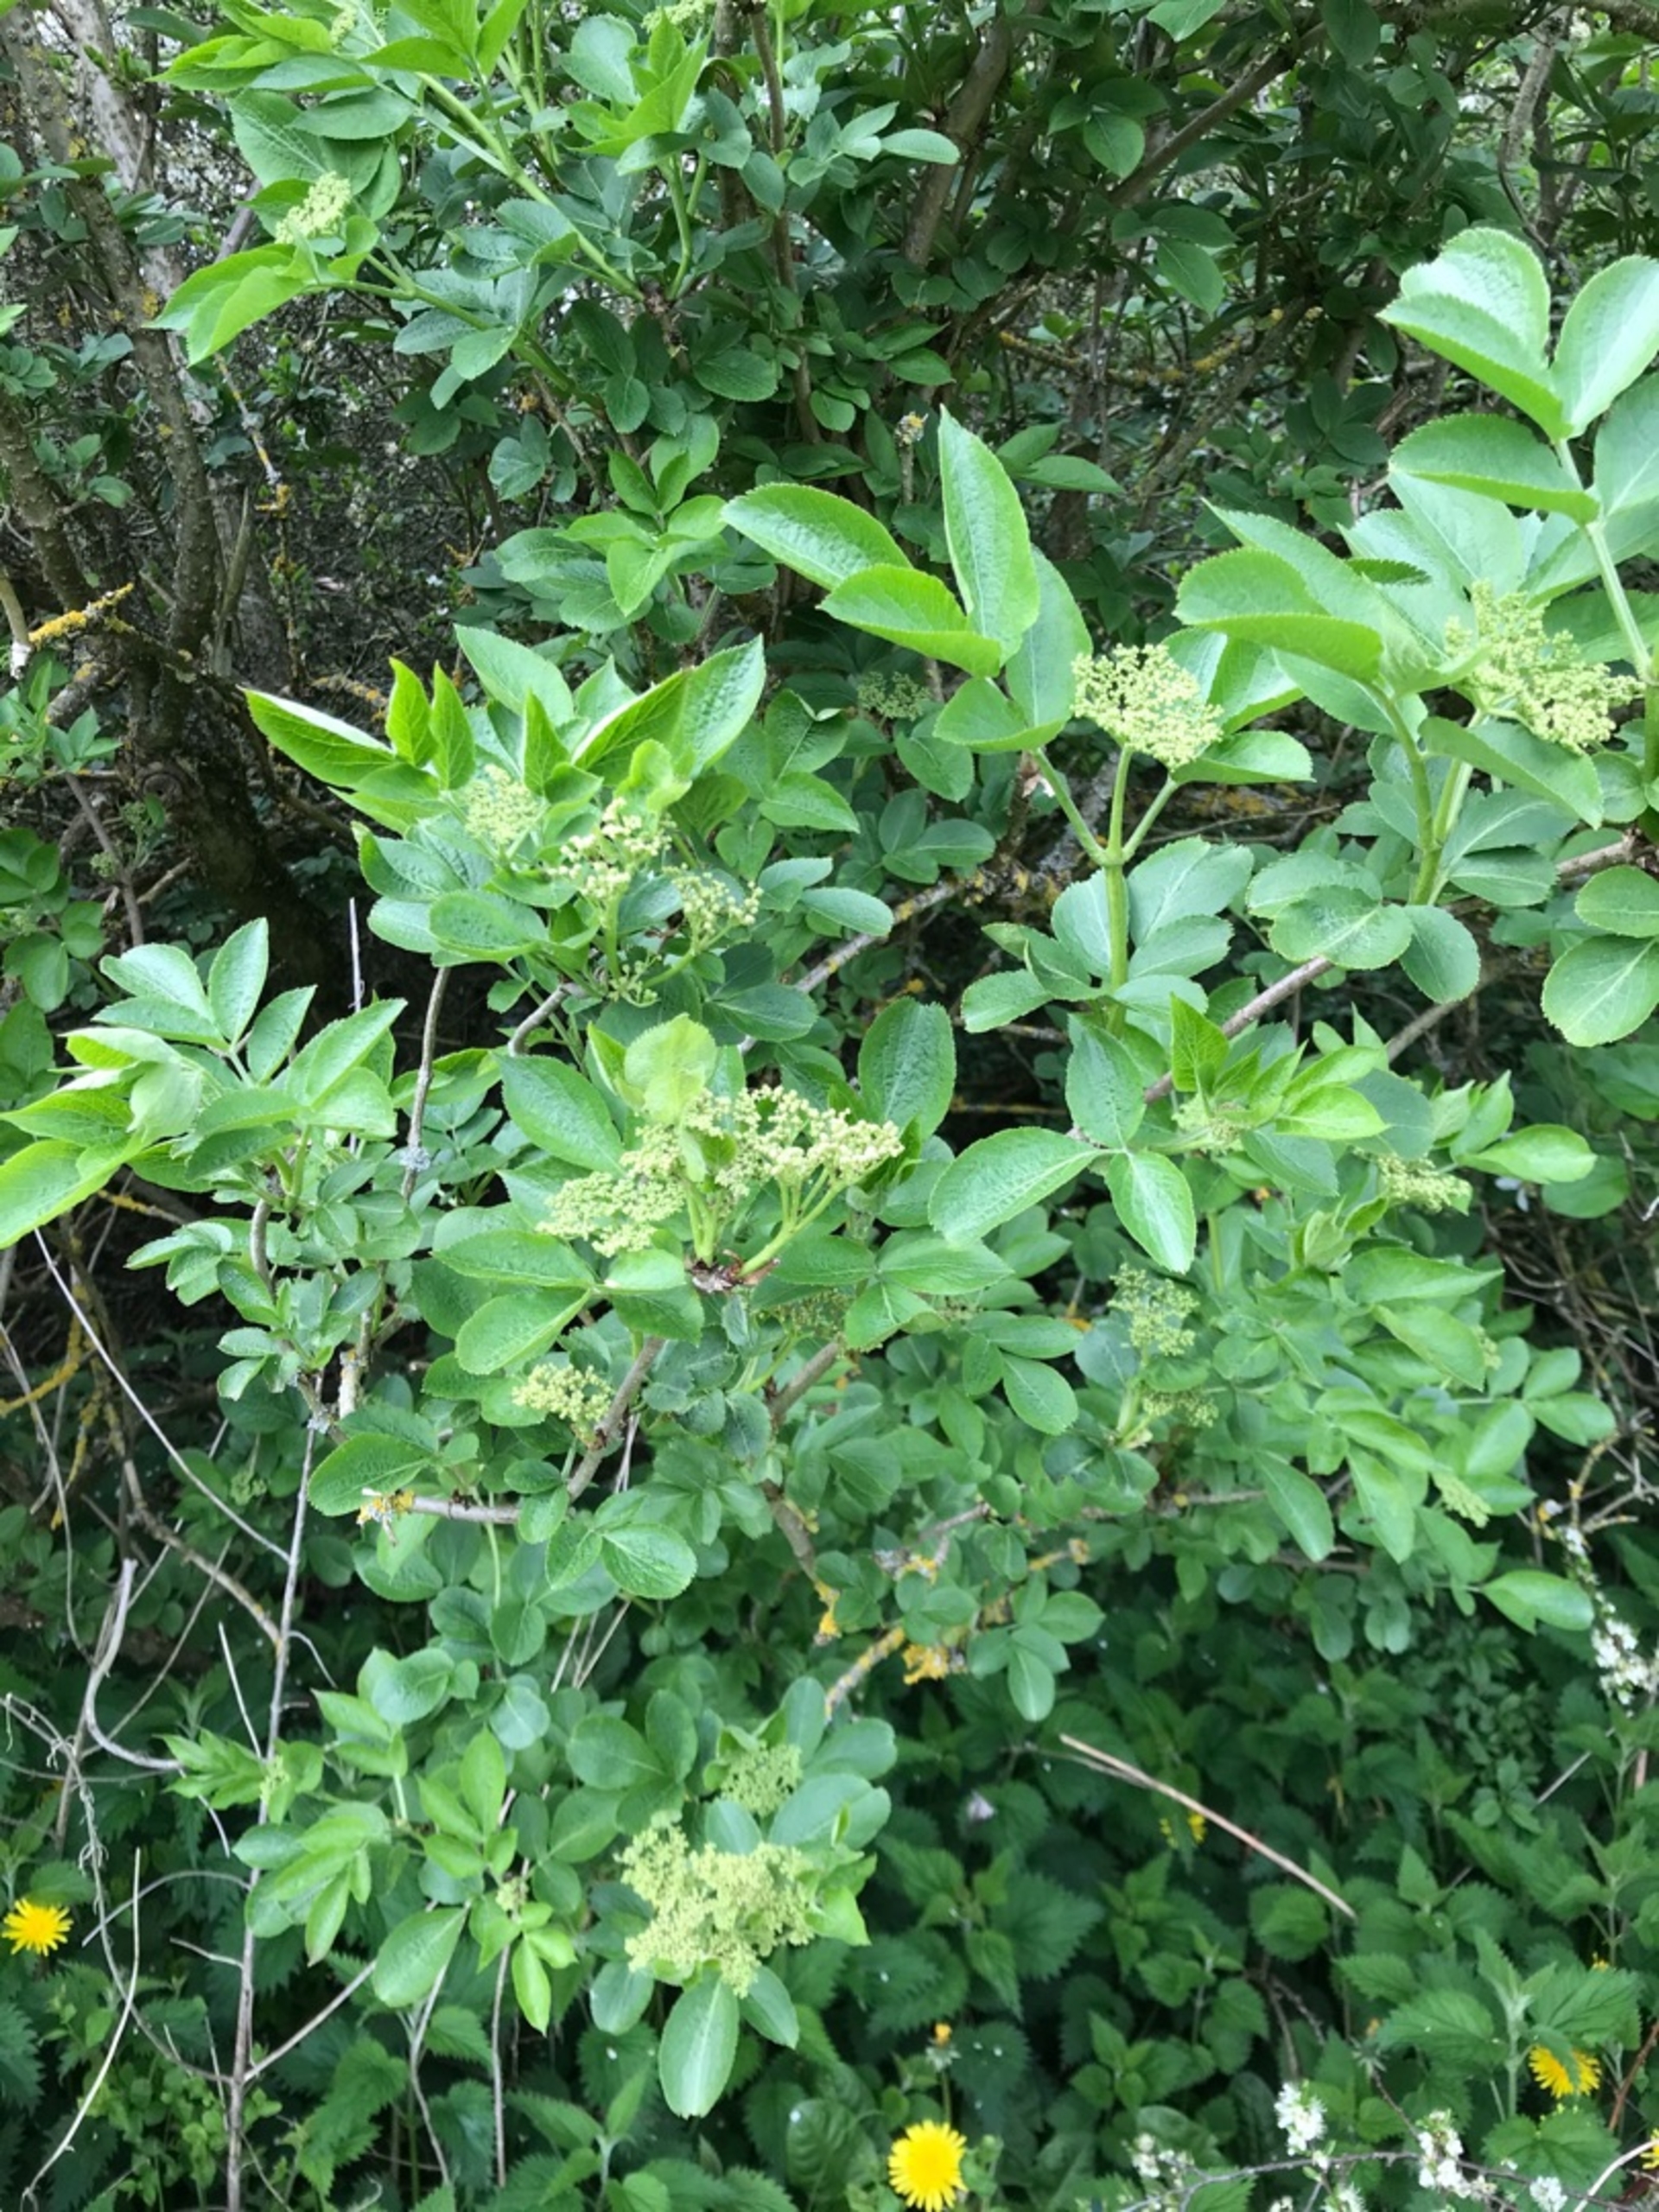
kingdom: Plantae
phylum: Tracheophyta
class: Magnoliopsida
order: Dipsacales
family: Viburnaceae
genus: Sambucus
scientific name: Sambucus nigra
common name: Almindelig hyld
